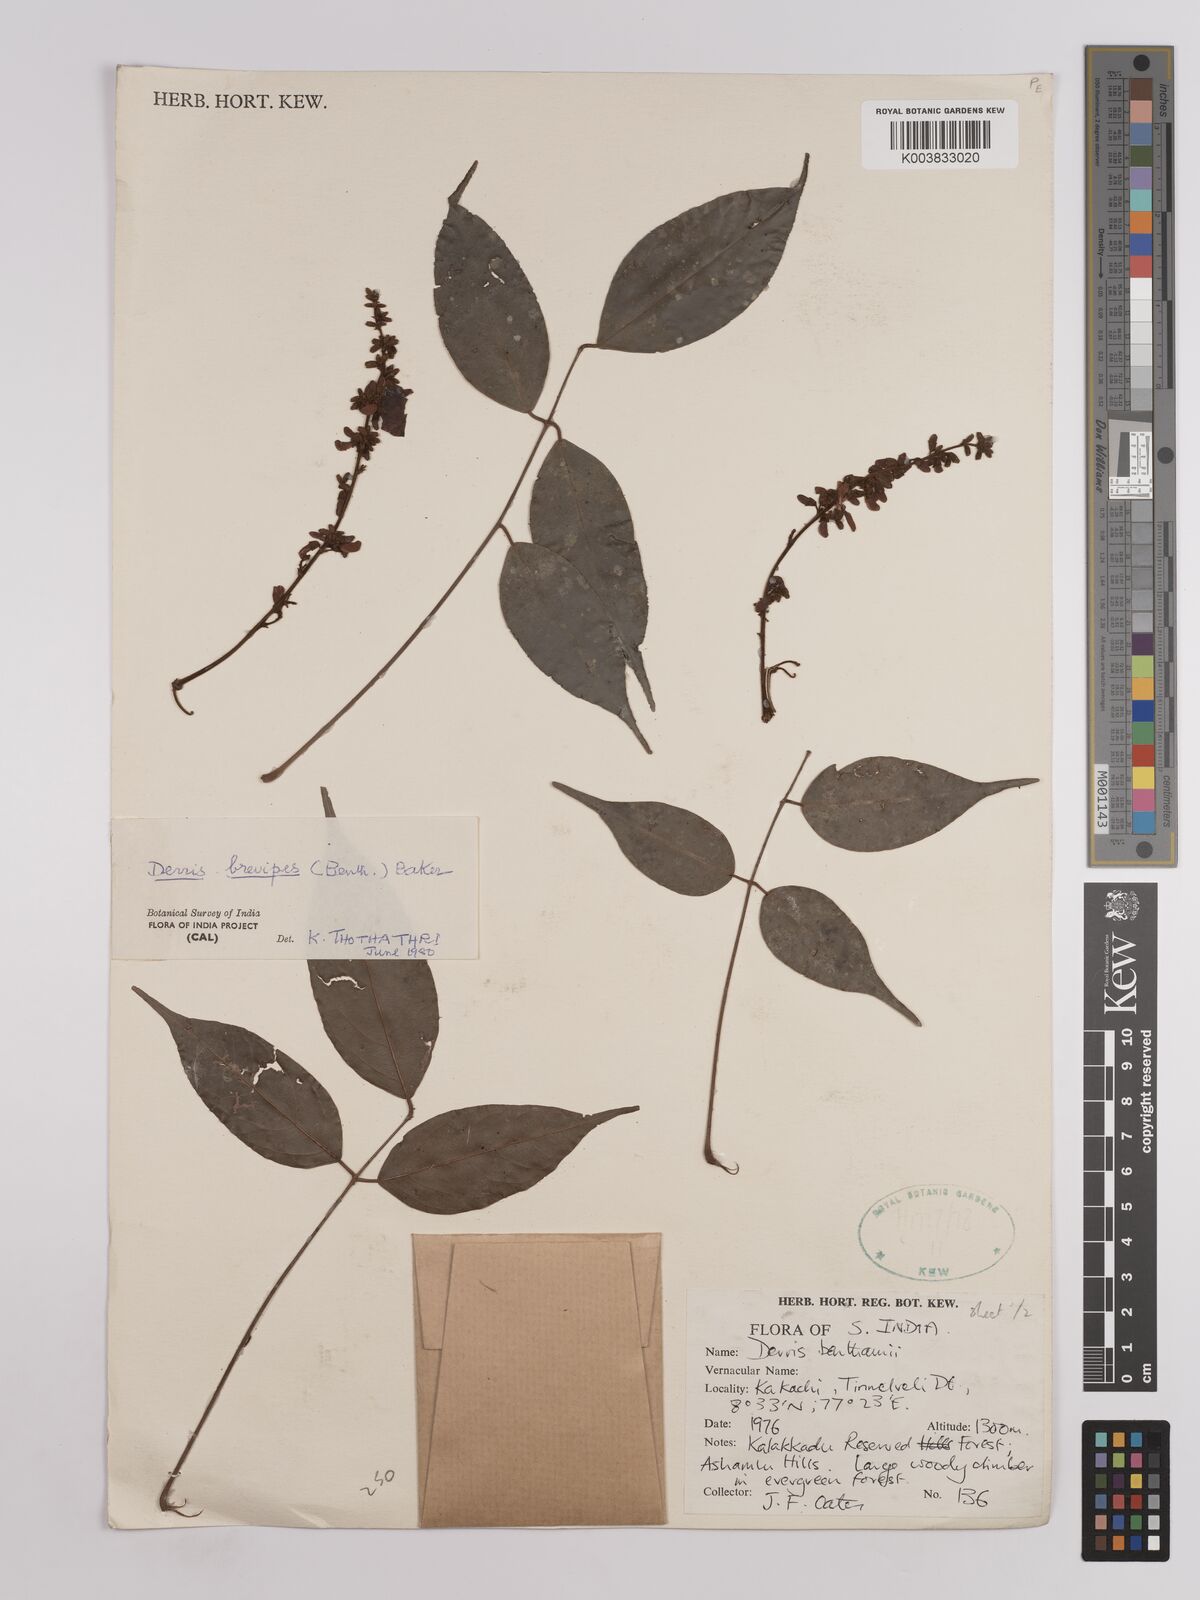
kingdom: Plantae
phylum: Tracheophyta
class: Magnoliopsida
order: Fabales
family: Fabaceae
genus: Derris
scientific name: Derris brevipes
